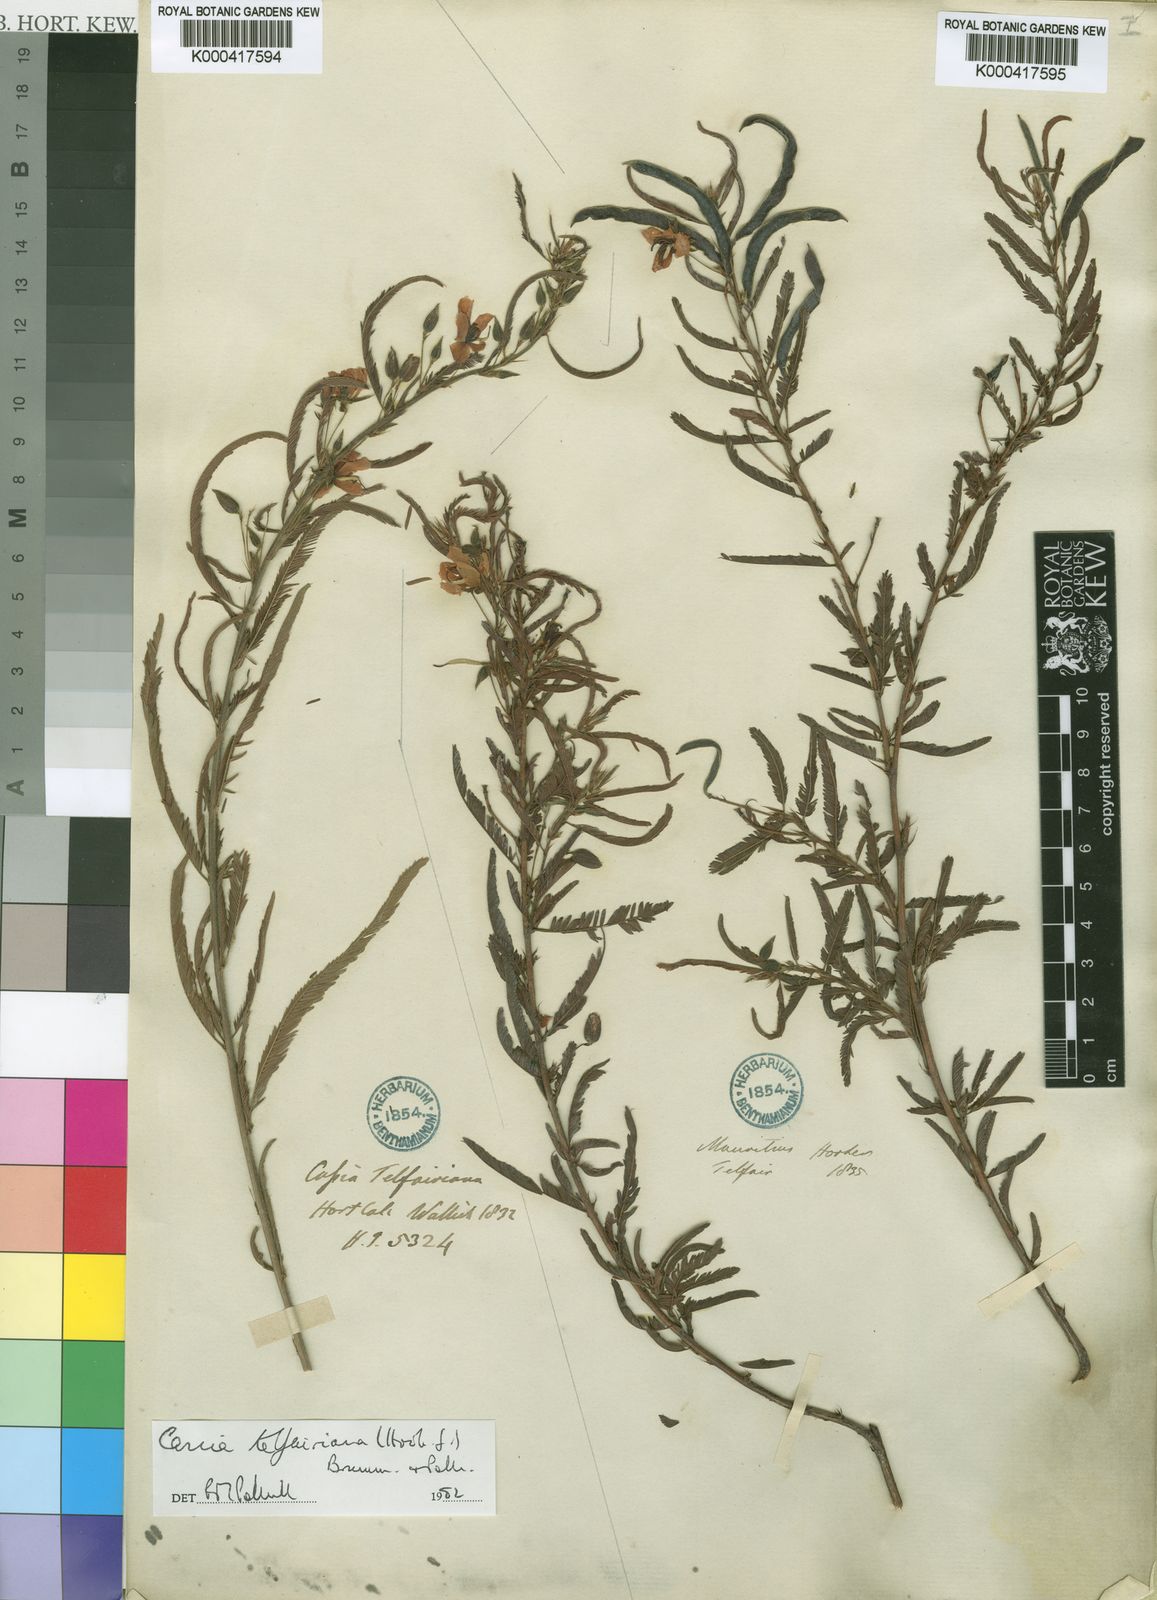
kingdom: Plantae
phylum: Tracheophyta
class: Magnoliopsida
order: Fabales
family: Fabaceae
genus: Chamaecrista
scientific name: Chamaecrista telfairiana
